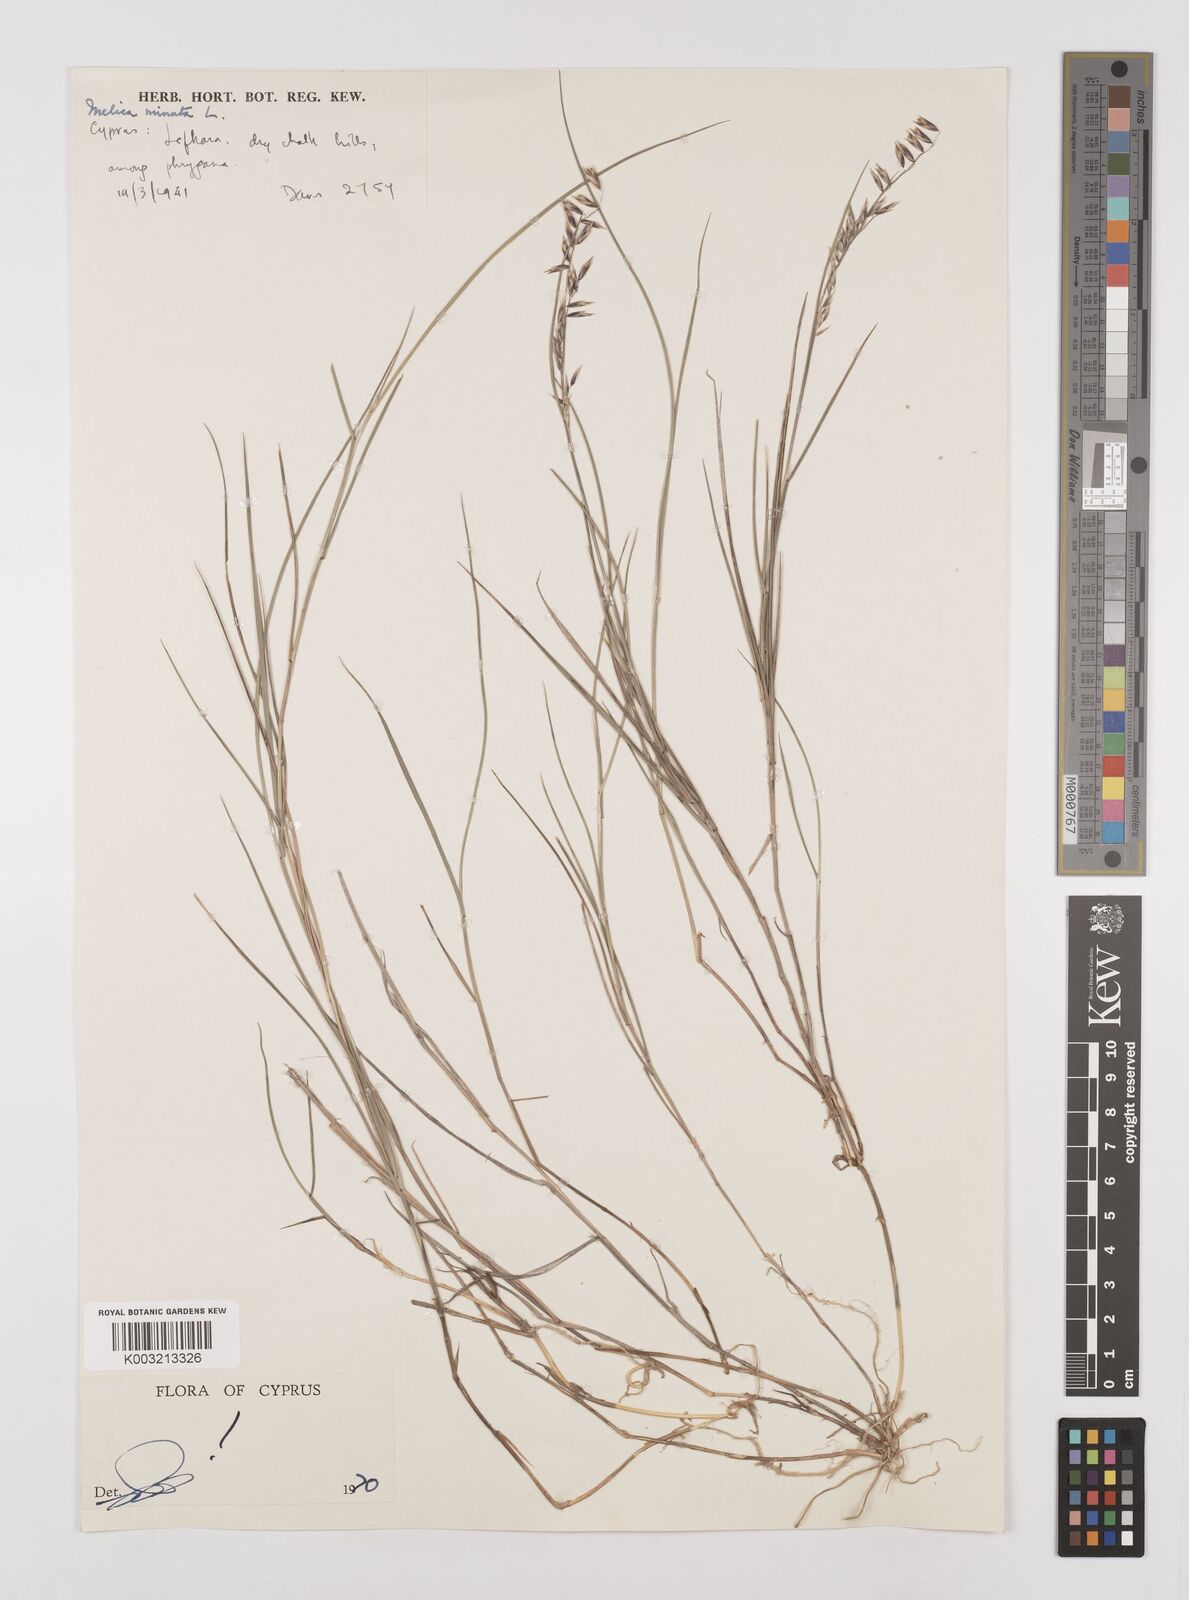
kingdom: Plantae
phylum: Tracheophyta
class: Liliopsida
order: Poales
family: Poaceae
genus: Melica
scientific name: Melica minuta
